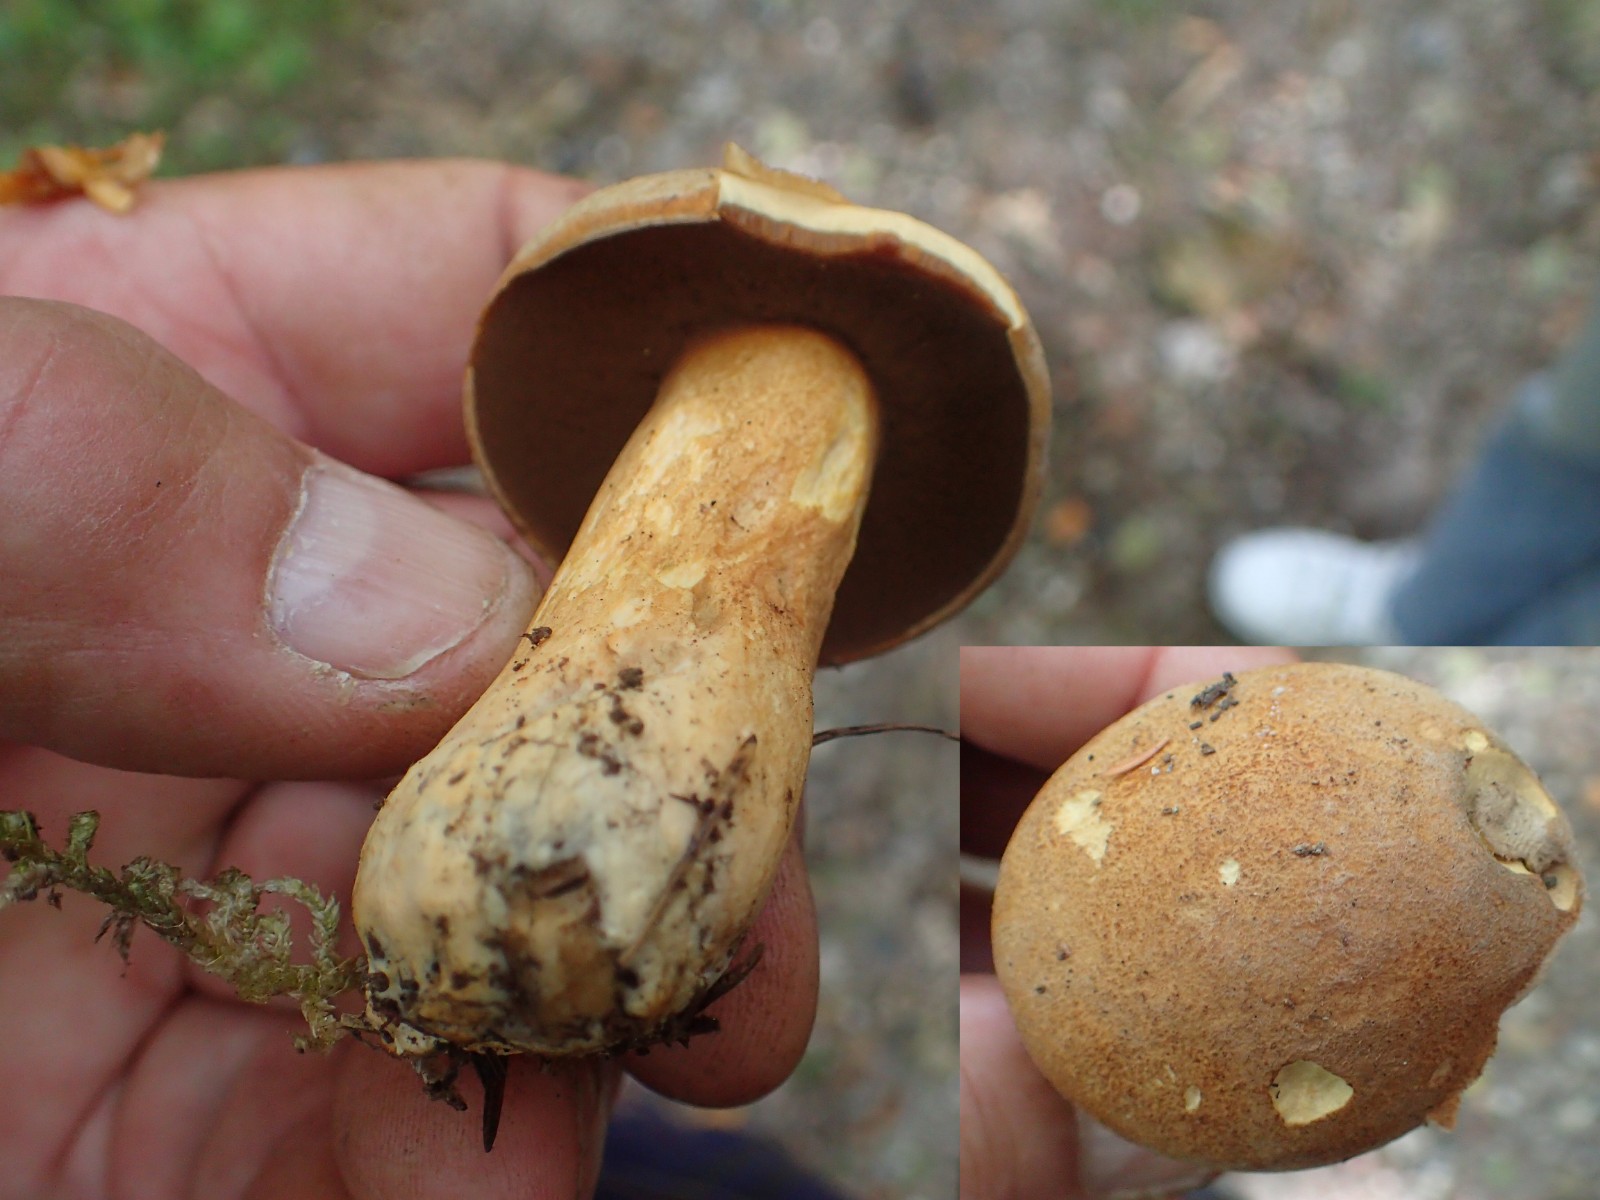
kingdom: Fungi
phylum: Basidiomycota
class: Agaricomycetes
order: Boletales
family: Suillaceae
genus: Suillus
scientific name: Suillus variegatus
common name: broget slimrørhat
